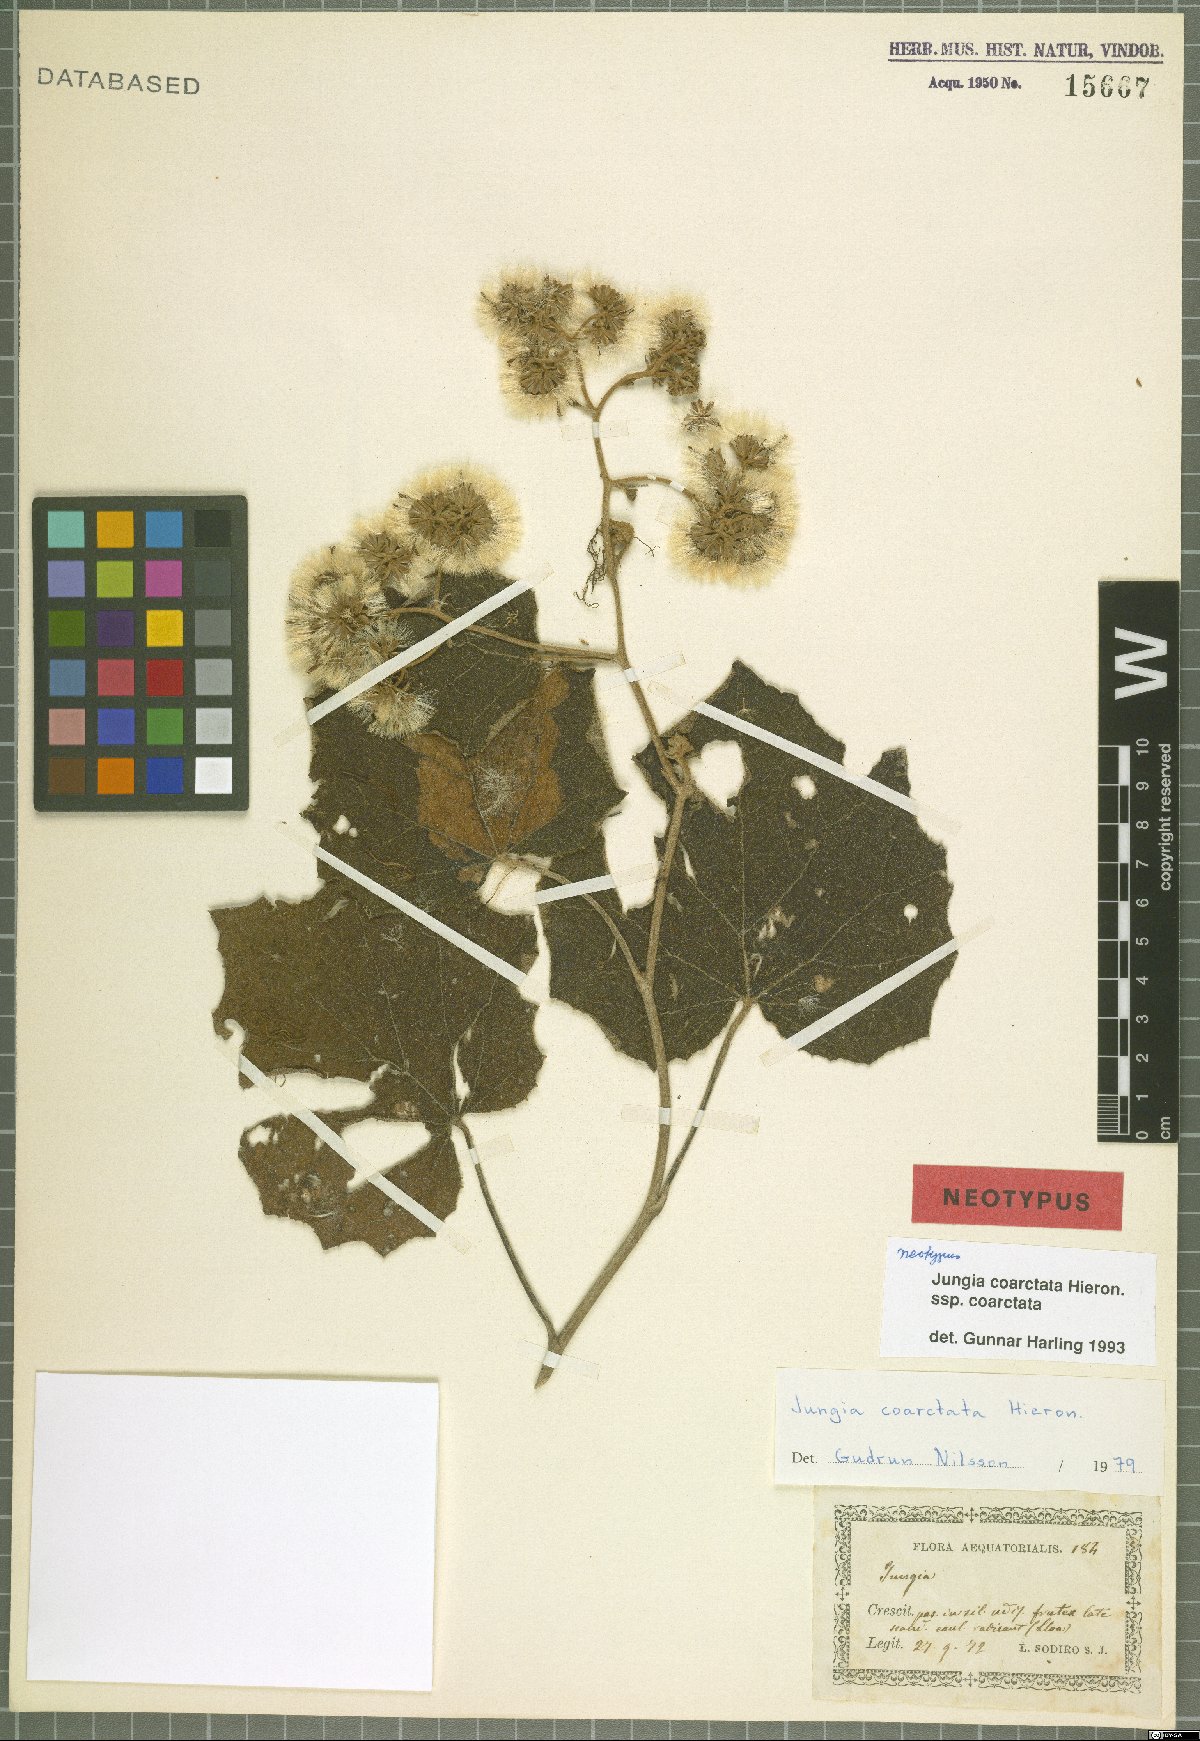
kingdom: Plantae
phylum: Tracheophyta
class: Magnoliopsida
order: Asterales
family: Asteraceae
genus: Jungia
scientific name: Jungia coarctata
